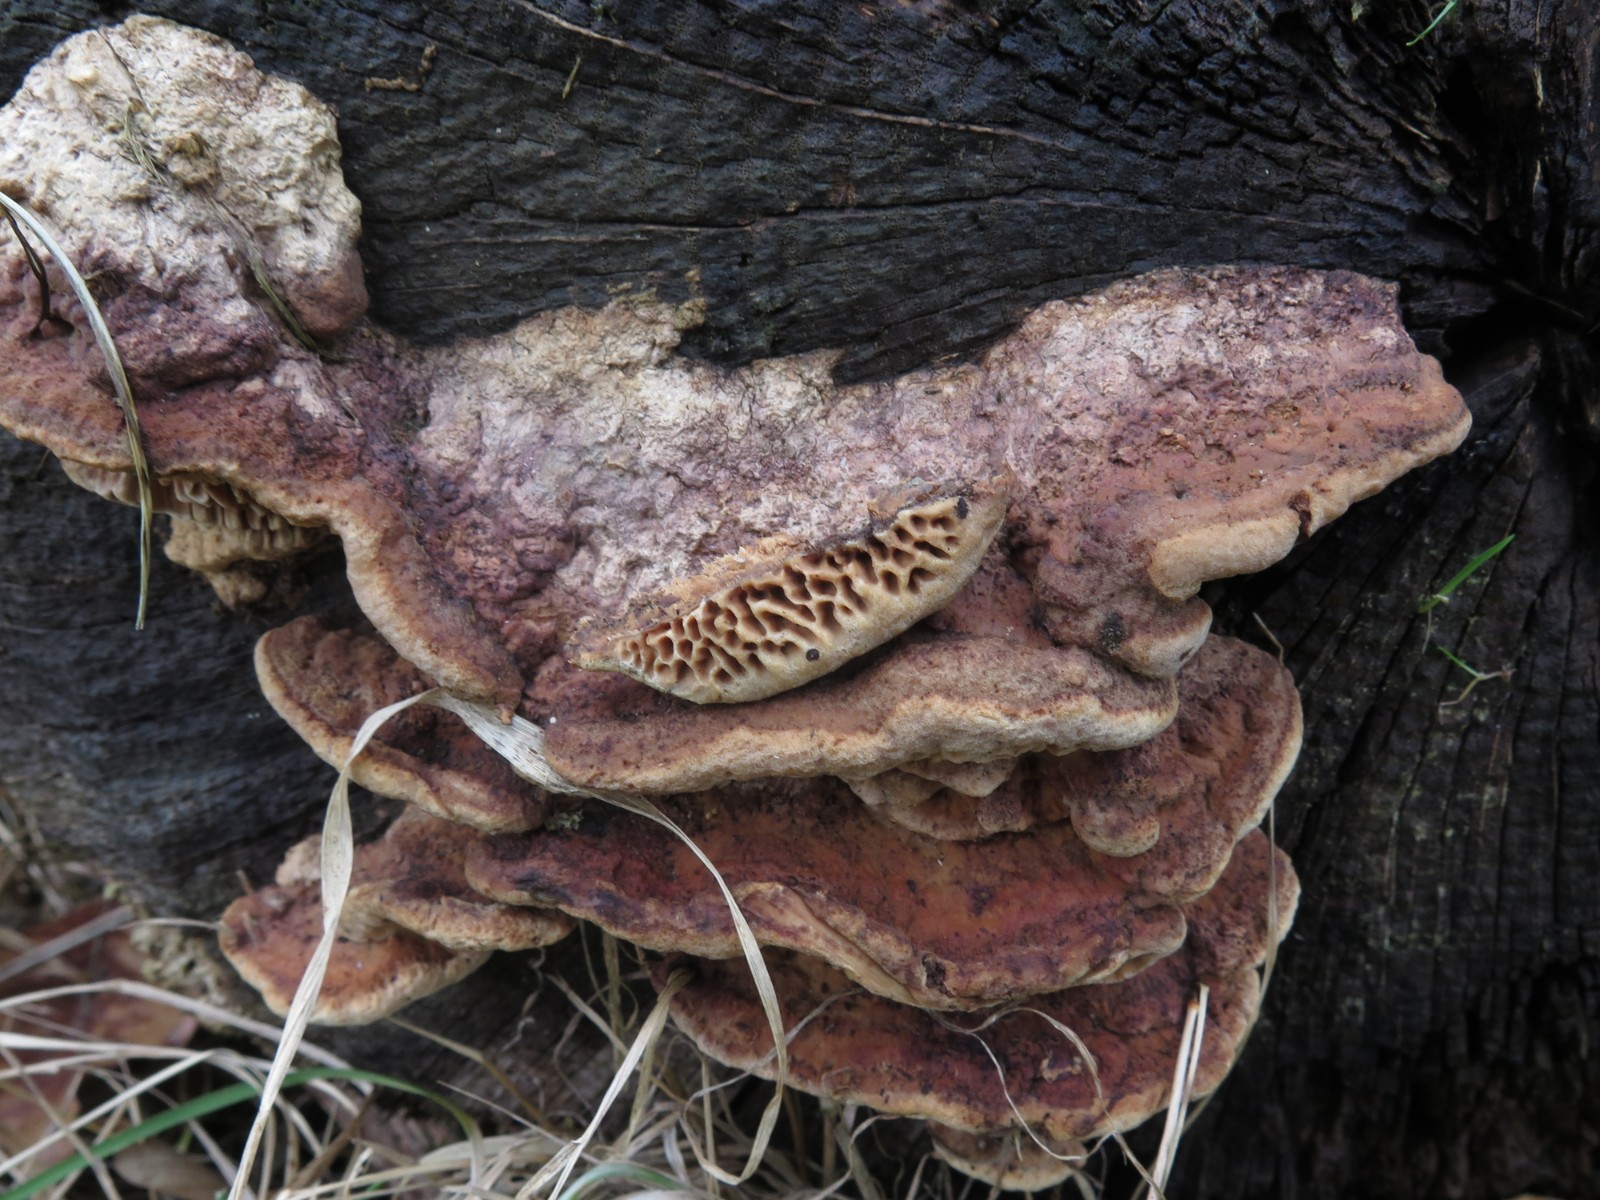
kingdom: Fungi
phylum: Basidiomycota
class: Agaricomycetes
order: Polyporales
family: Fomitopsidaceae
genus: Daedalea
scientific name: Daedalea quercina
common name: ege-labyrintsvamp
